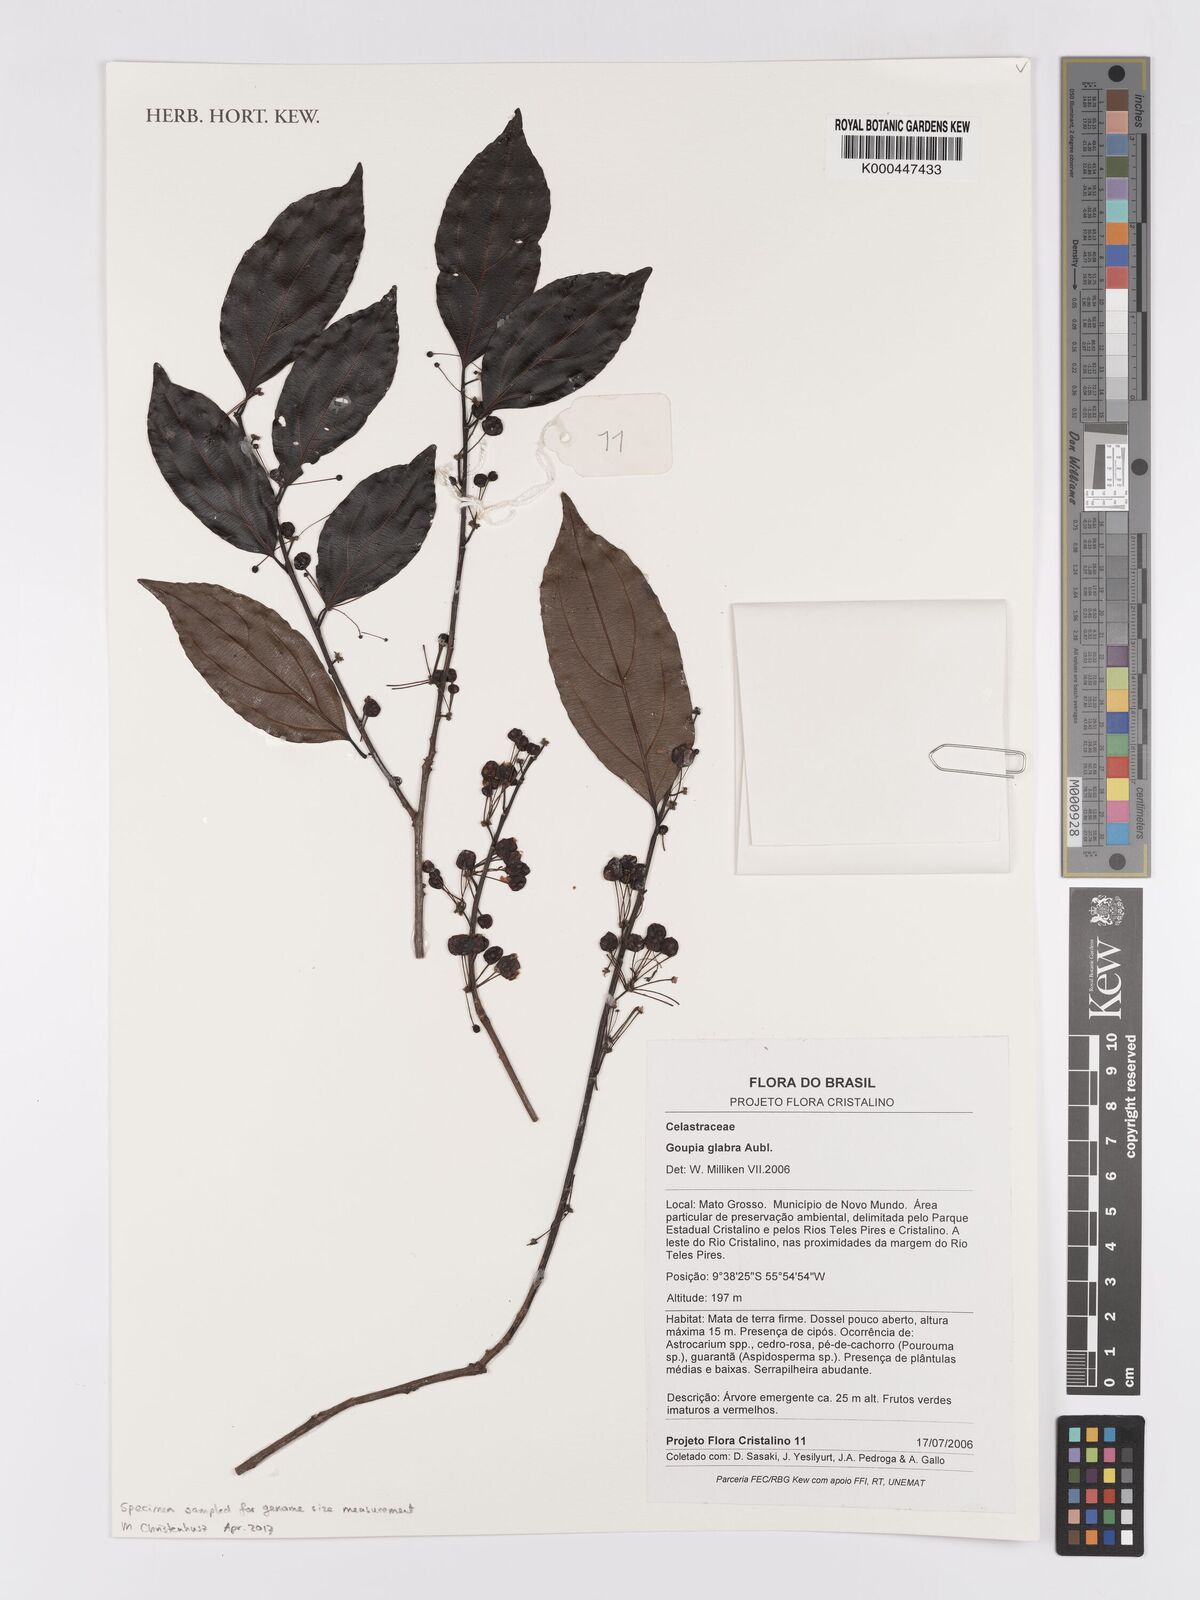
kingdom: Plantae
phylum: Tracheophyta
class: Magnoliopsida
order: Malpighiales
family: Goupiaceae
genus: Goupia
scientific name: Goupia glabra
